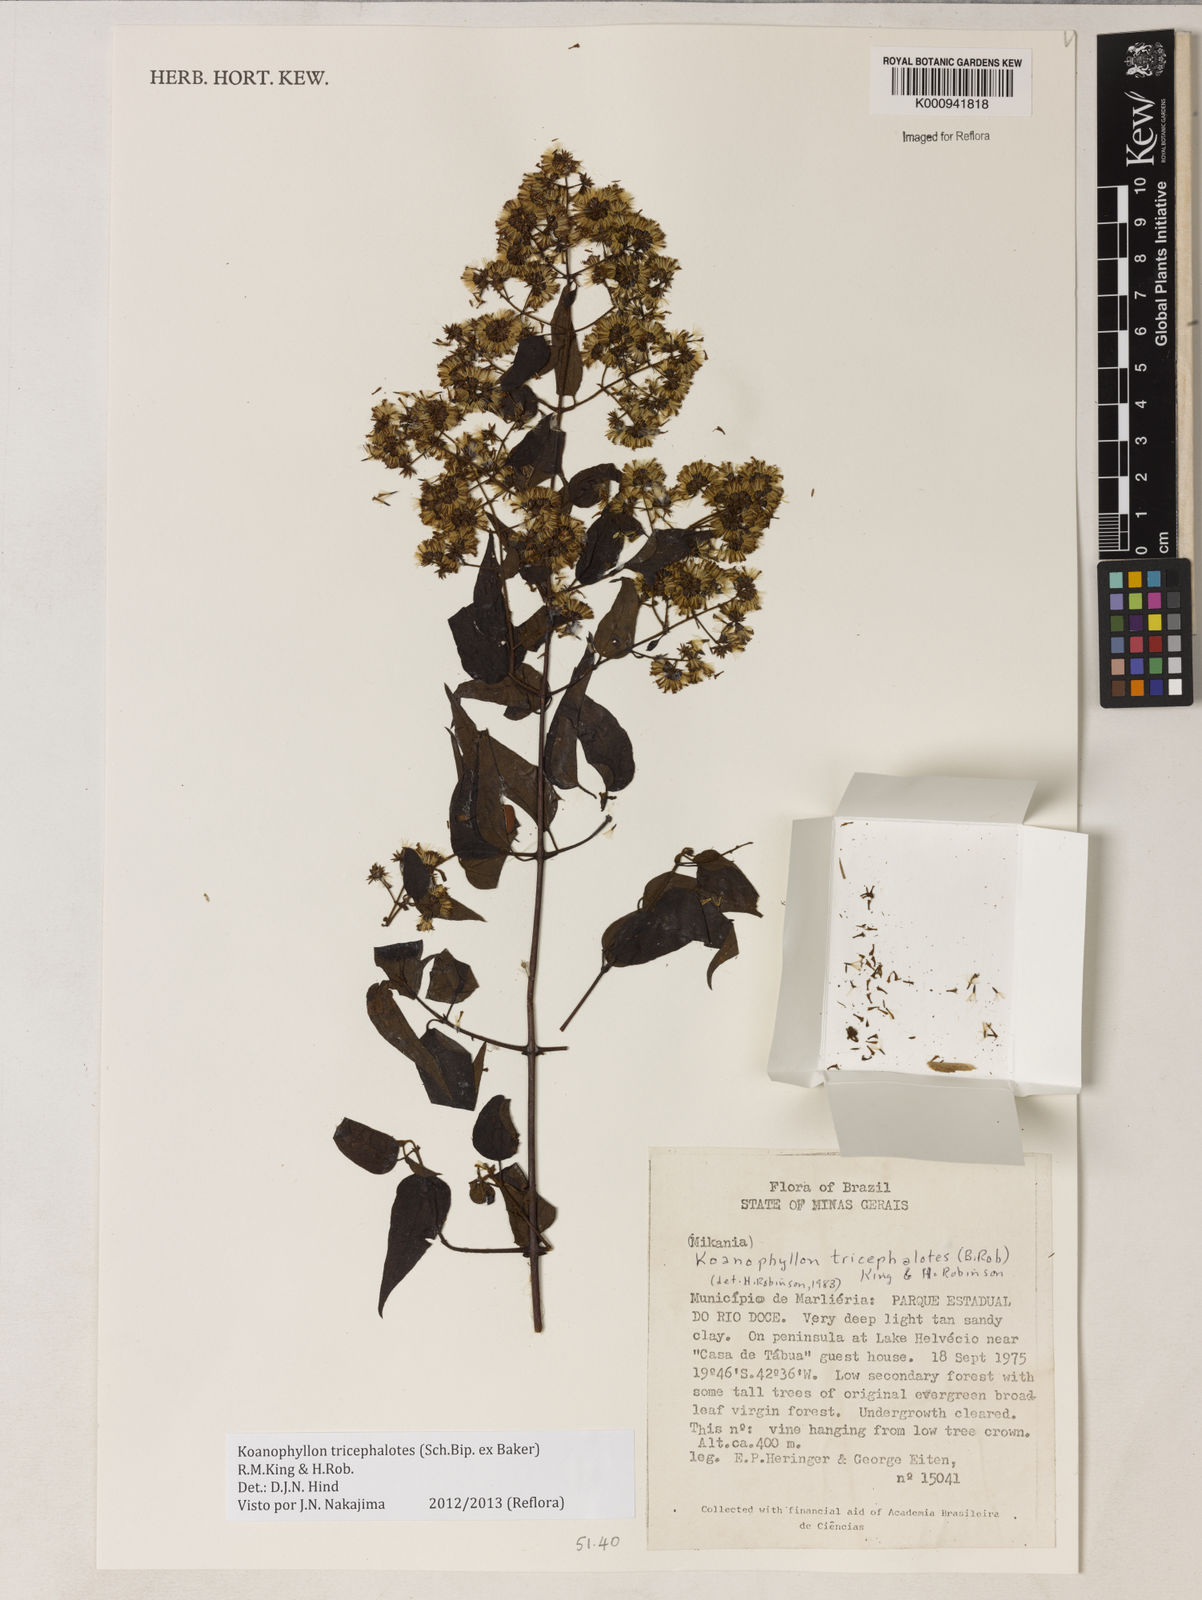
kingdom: Plantae
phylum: Tracheophyta
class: Magnoliopsida
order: Asterales
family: Asteraceae
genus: Koanophyllon
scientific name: Koanophyllon tricephalotes
